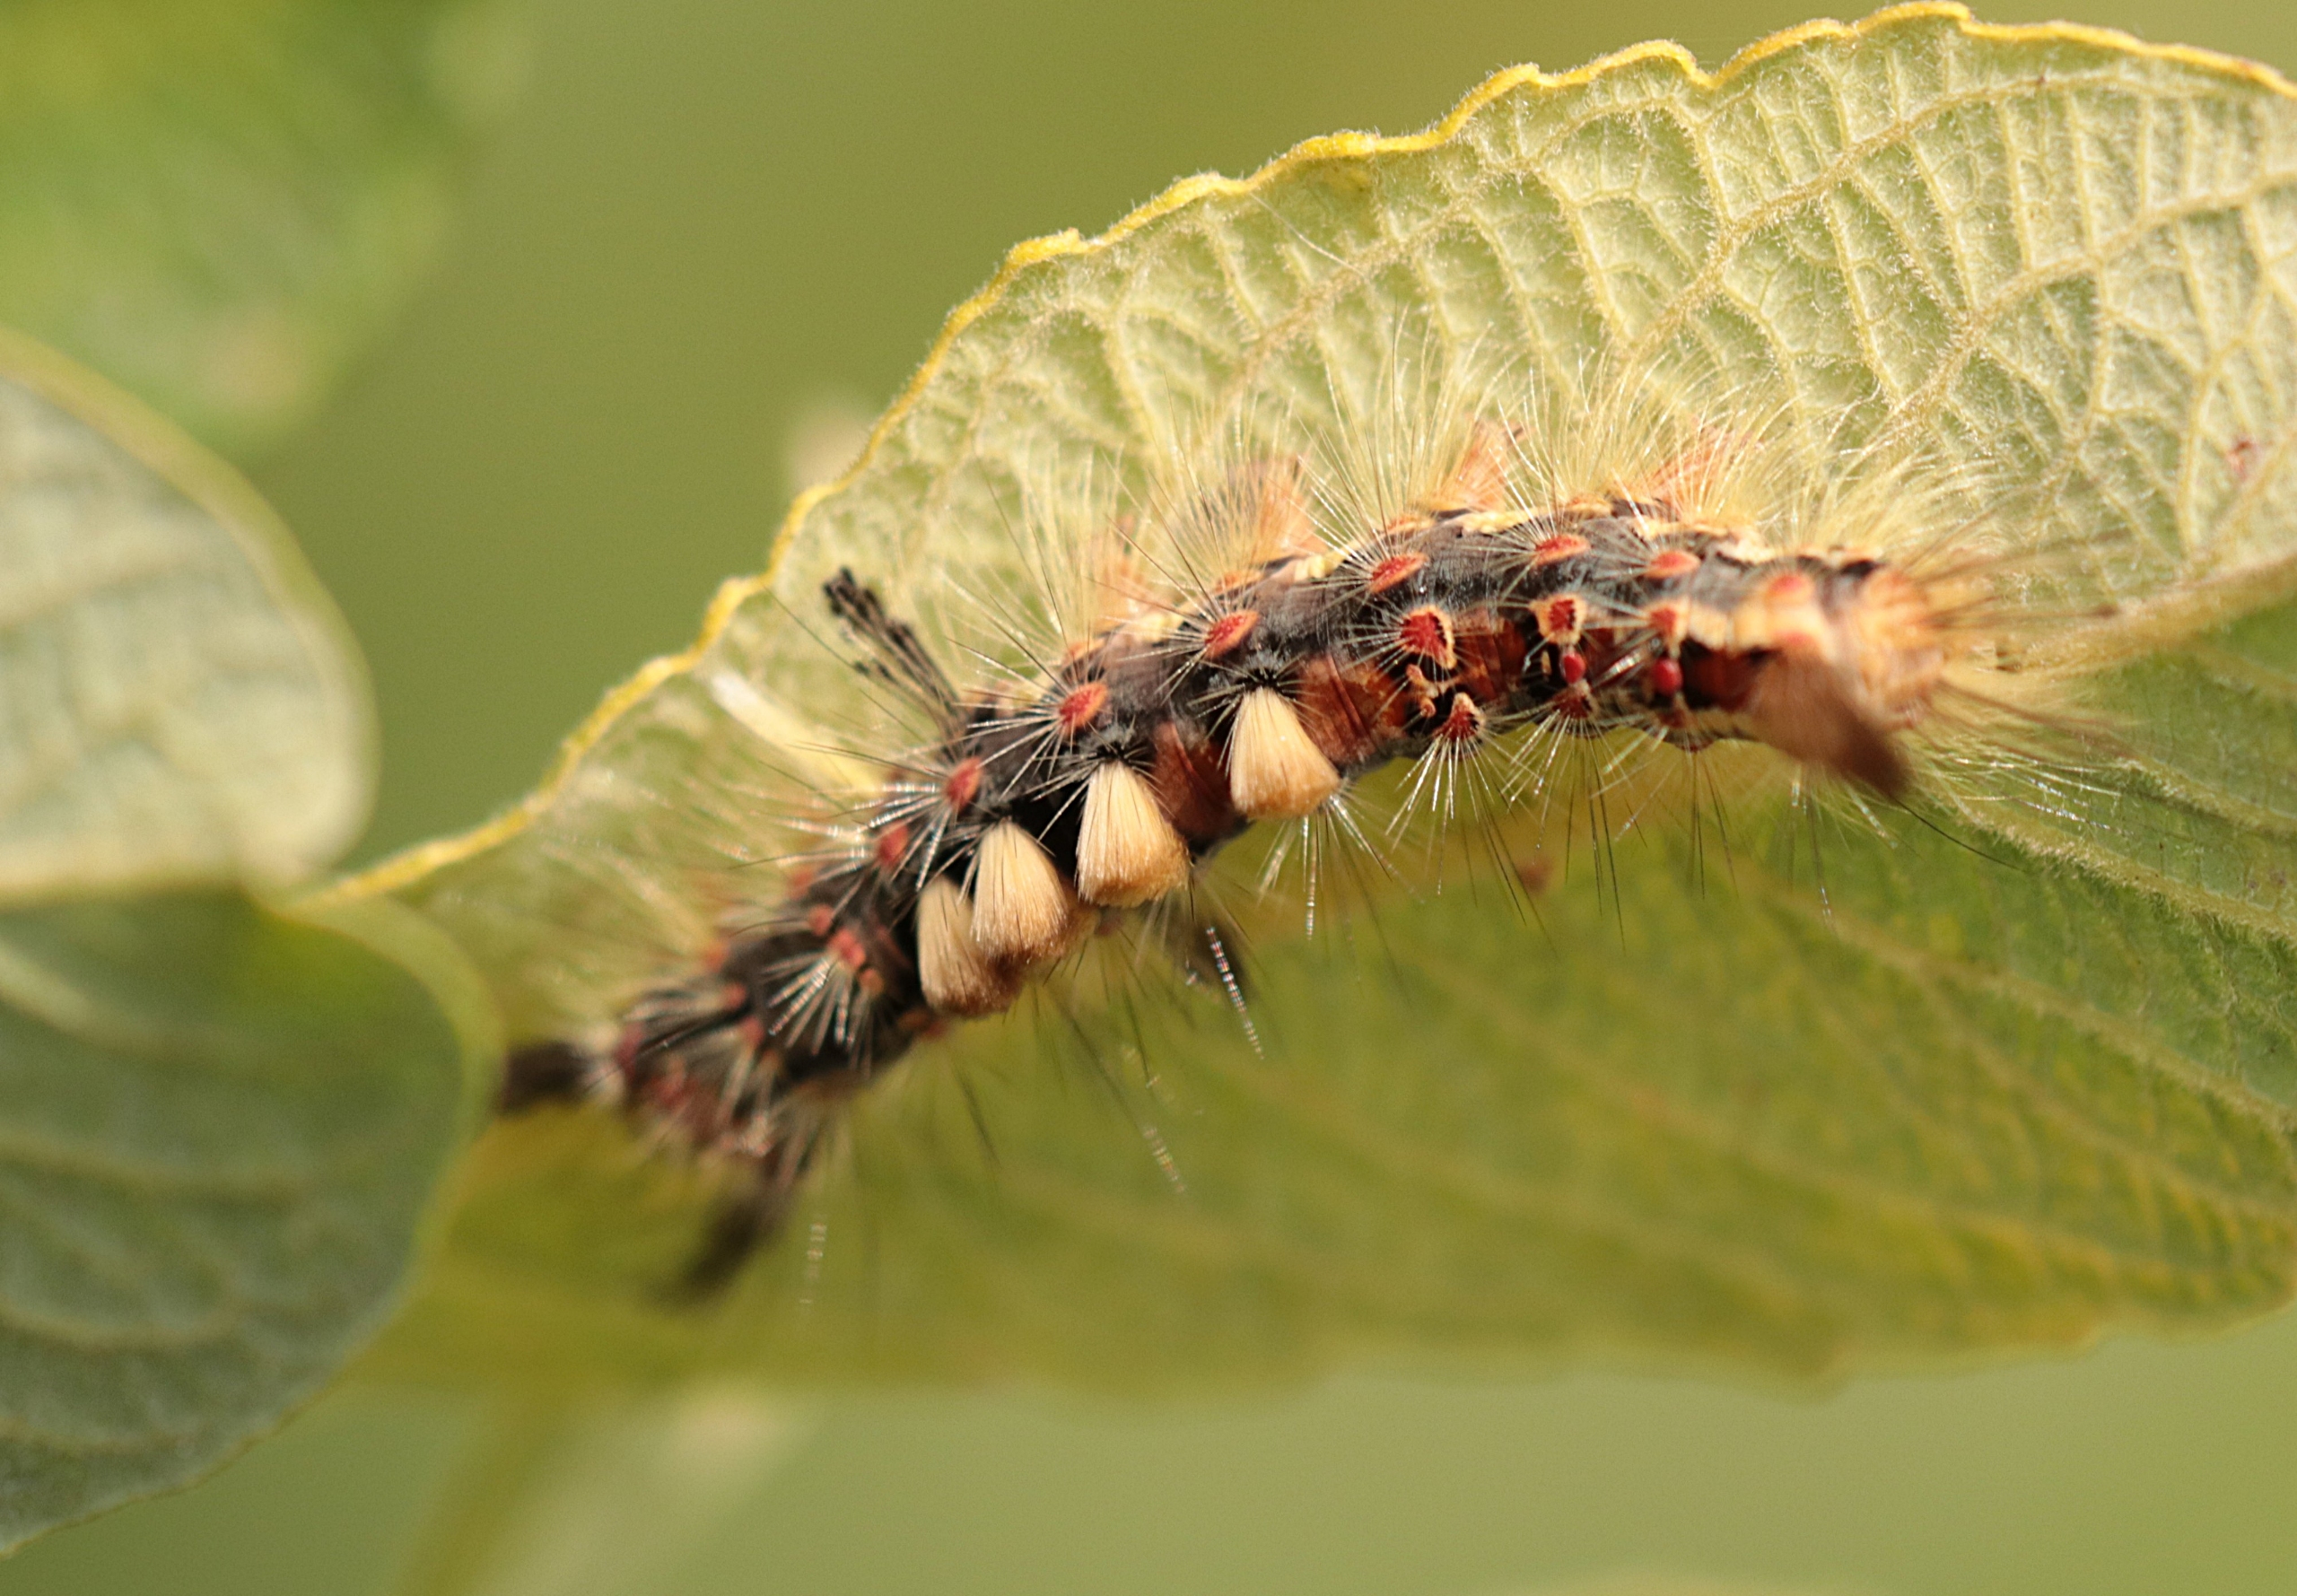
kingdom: Animalia
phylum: Arthropoda
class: Insecta
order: Lepidoptera
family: Erebidae
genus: Orgyia
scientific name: Orgyia antiqua
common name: Lille penselspinder
